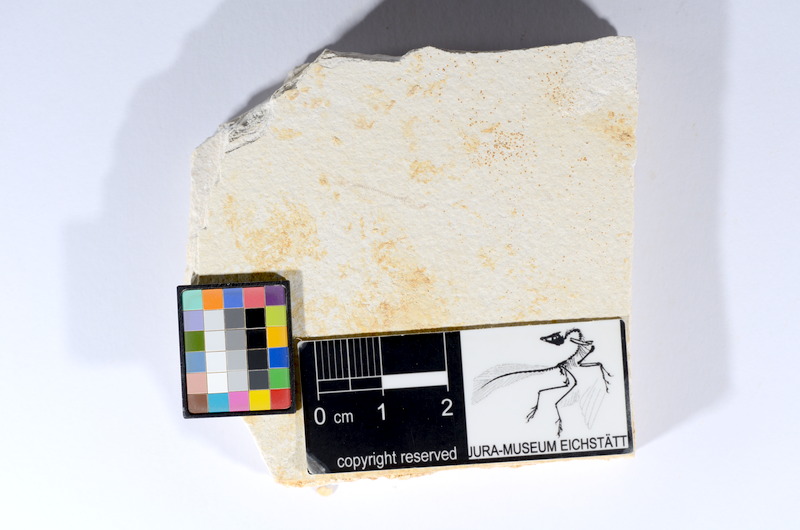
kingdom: Animalia
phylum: Chordata
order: Salmoniformes
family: Orthogonikleithridae
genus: Orthogonikleithrus
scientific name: Orthogonikleithrus hoelli
